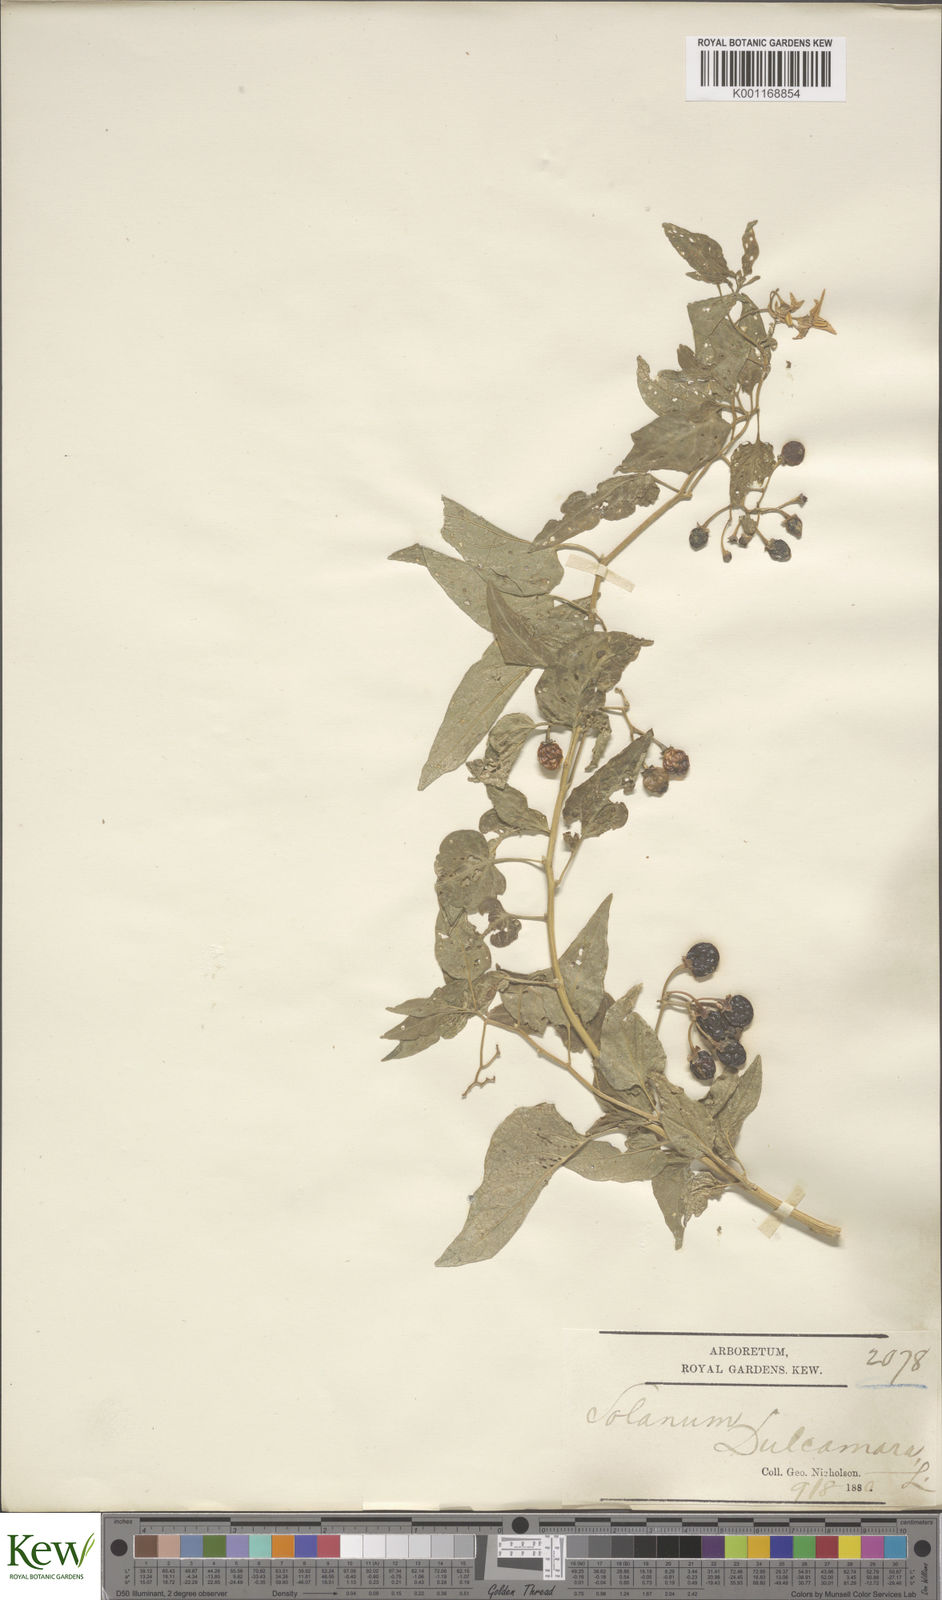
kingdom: Plantae
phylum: Tracheophyta
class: Magnoliopsida
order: Solanales
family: Solanaceae
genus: Solanum
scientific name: Solanum dulcamara
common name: Climbing nightshade
